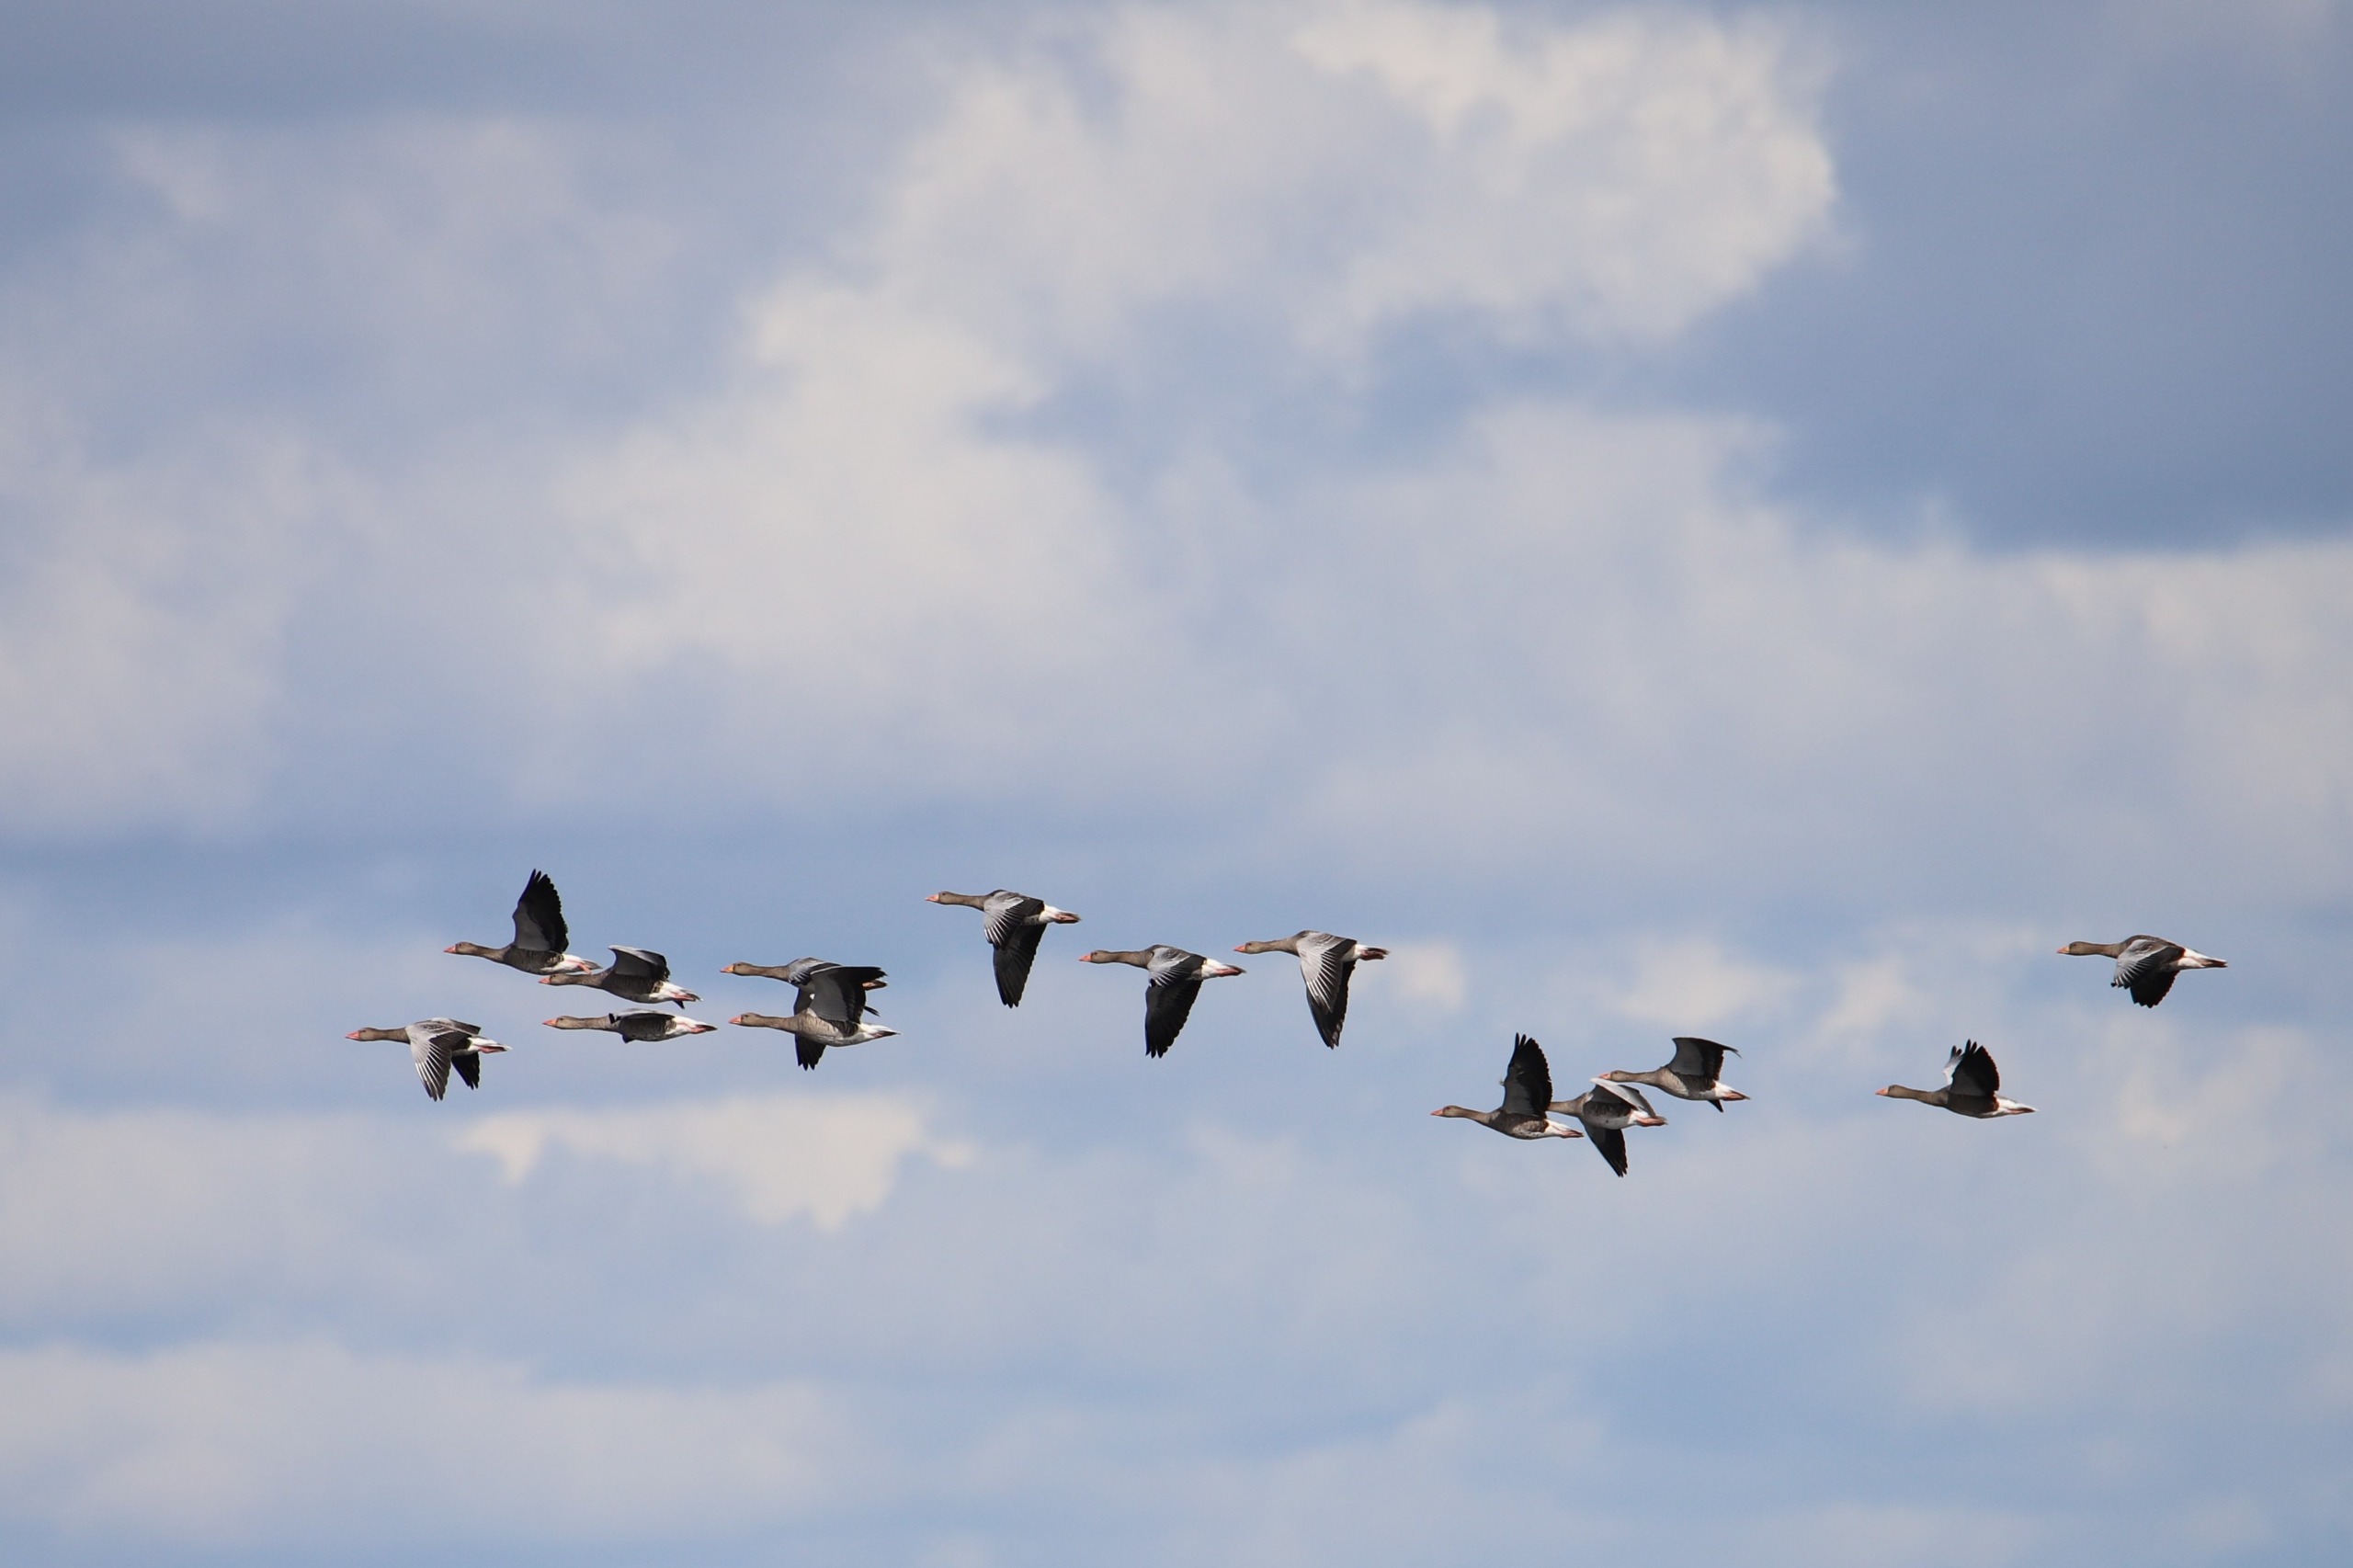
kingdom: Animalia
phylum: Chordata
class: Aves
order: Anseriformes
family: Anatidae
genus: Anser
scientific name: Anser anser
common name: Grågås
